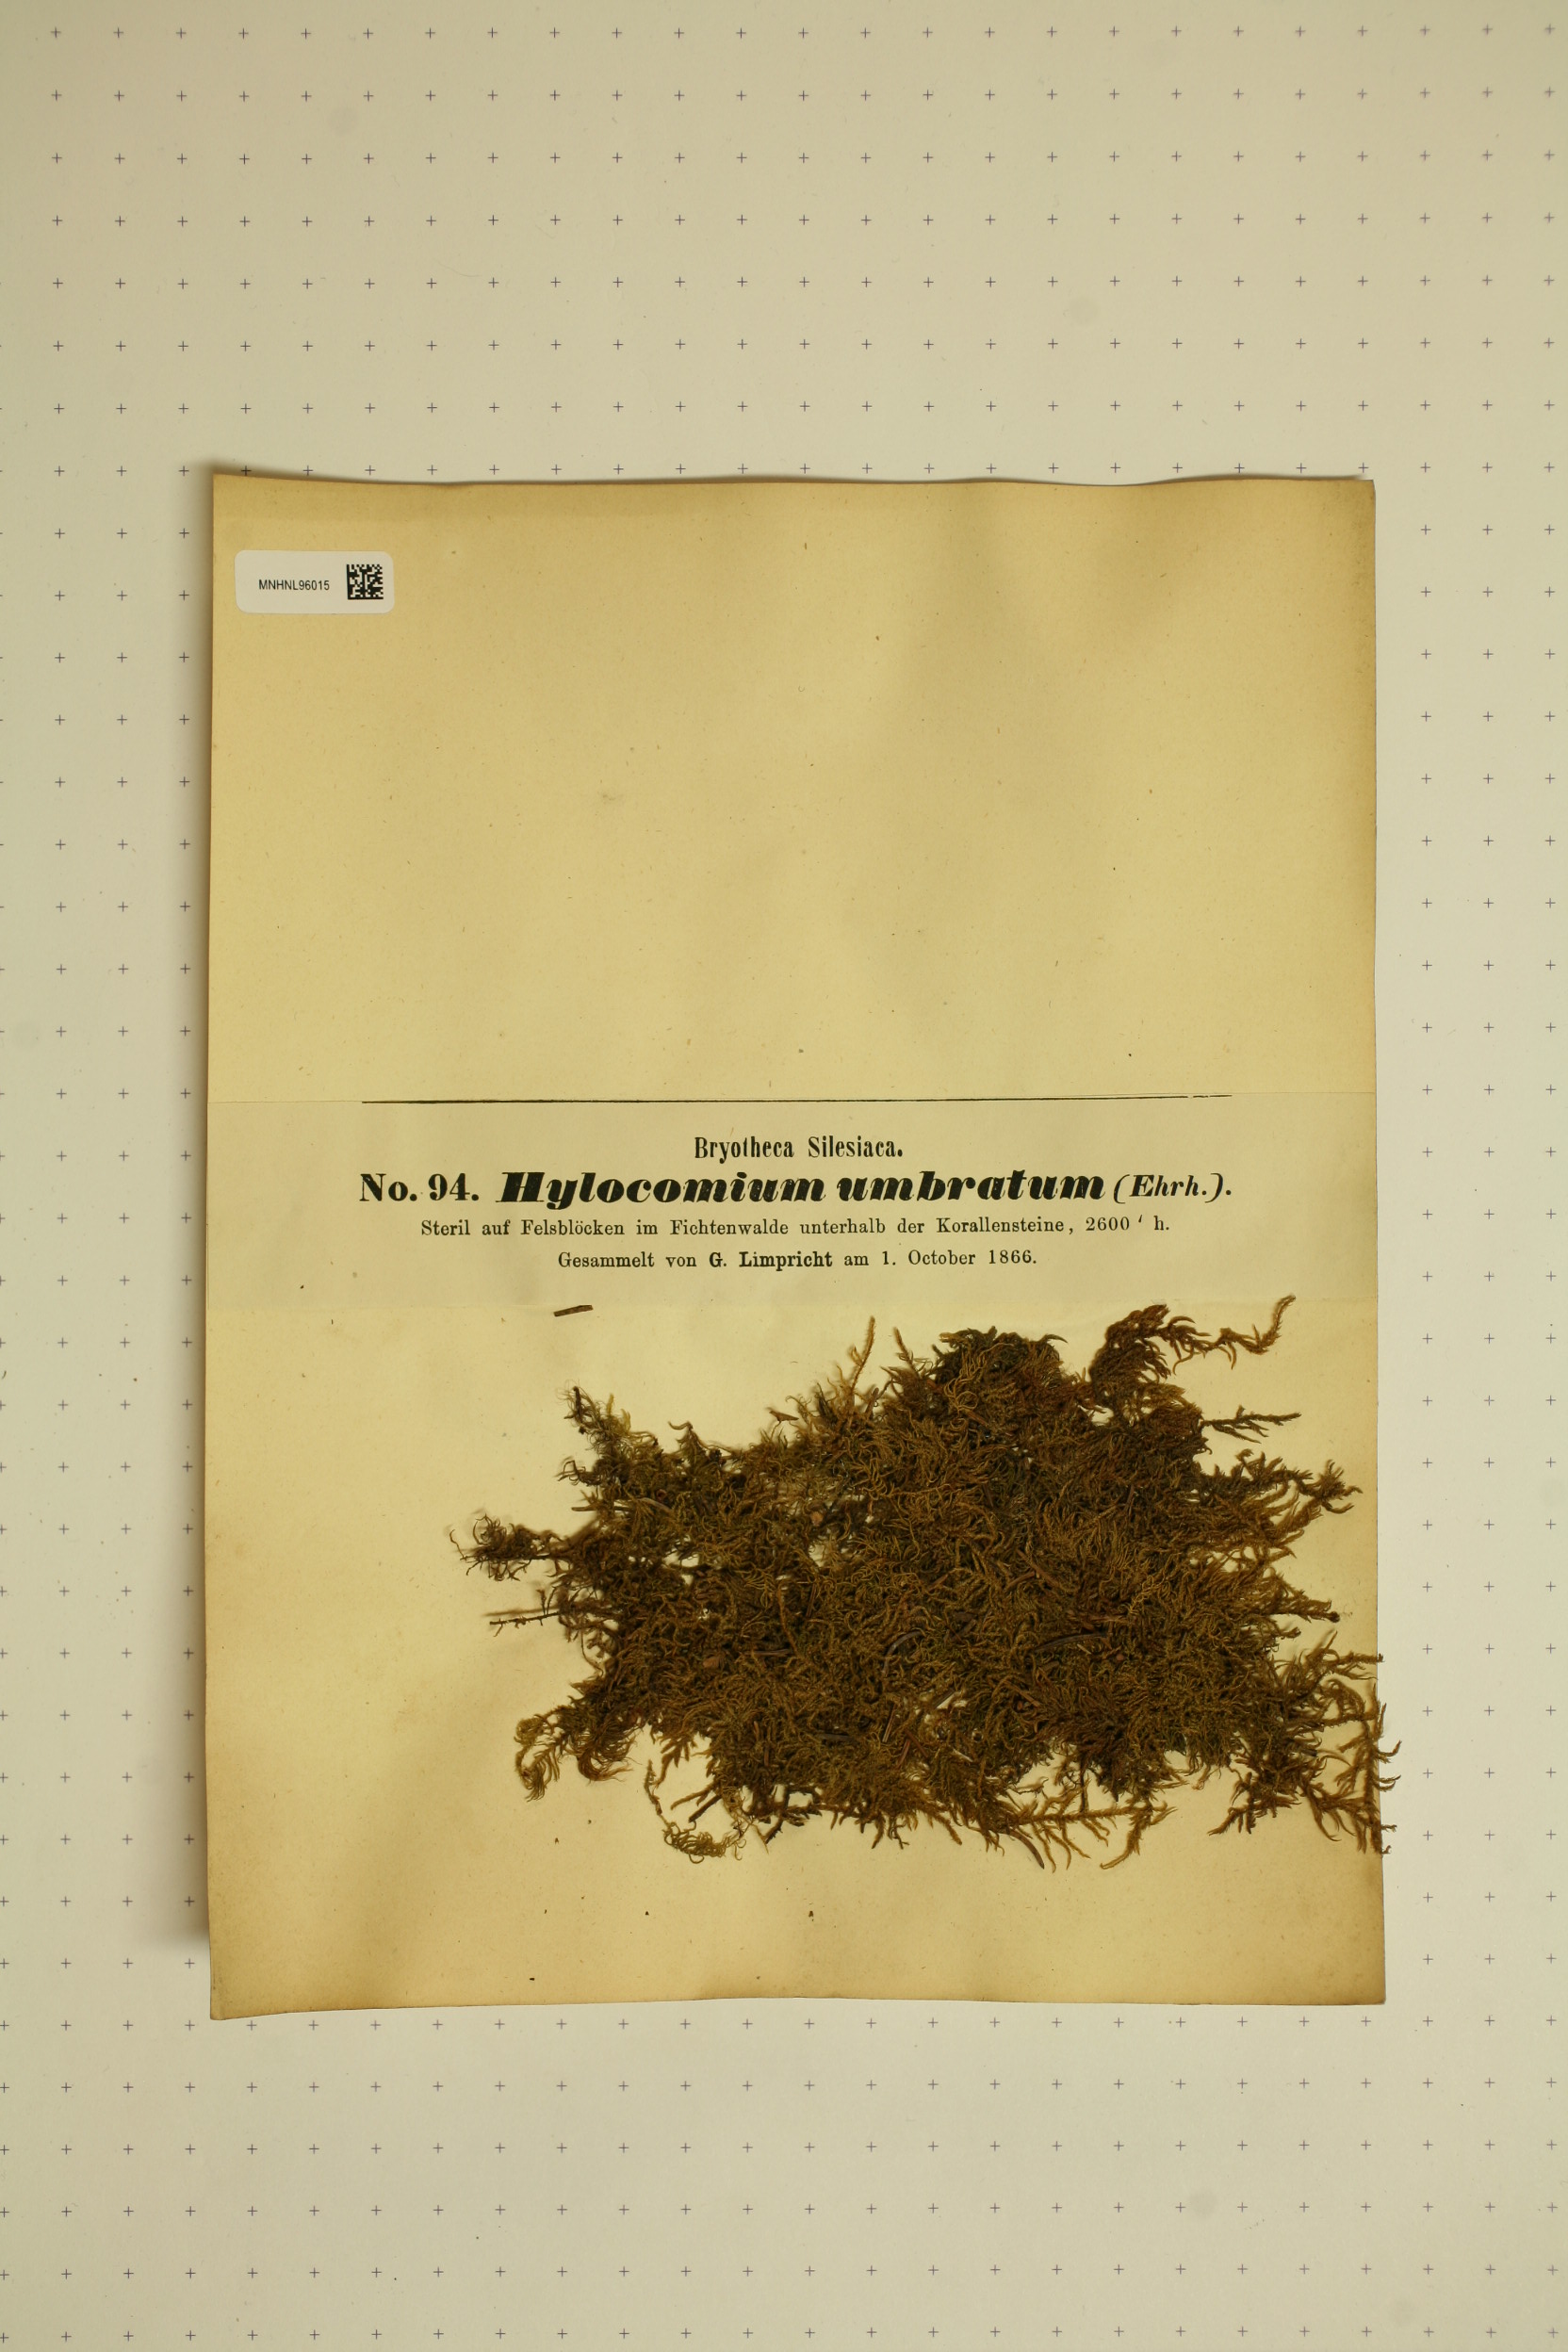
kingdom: Plantae
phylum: Bryophyta
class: Bryopsida
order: Hypnales
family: Hylocomiaceae
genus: Hylocomiastrum
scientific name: Hylocomiastrum umbratum
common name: Shaded woods moss
